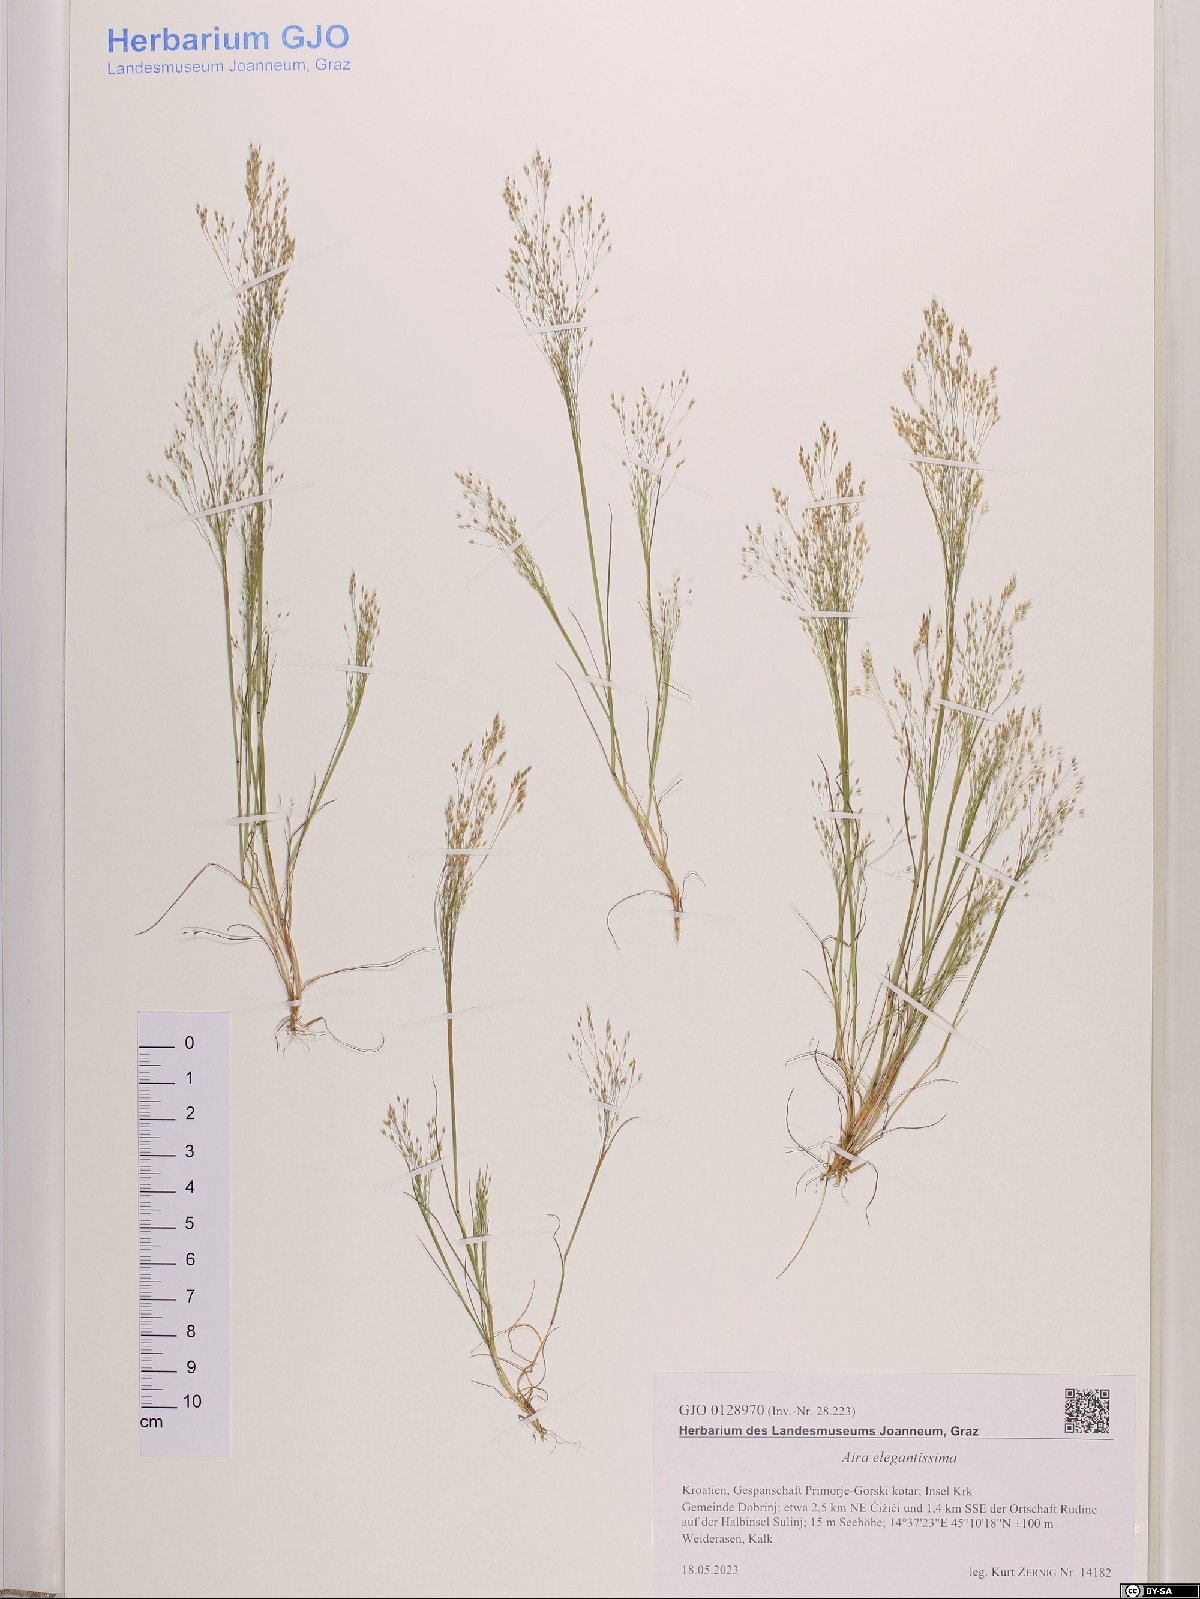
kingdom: Plantae
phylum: Tracheophyta
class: Liliopsida
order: Poales
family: Poaceae
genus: Aira
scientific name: Aira elegans
